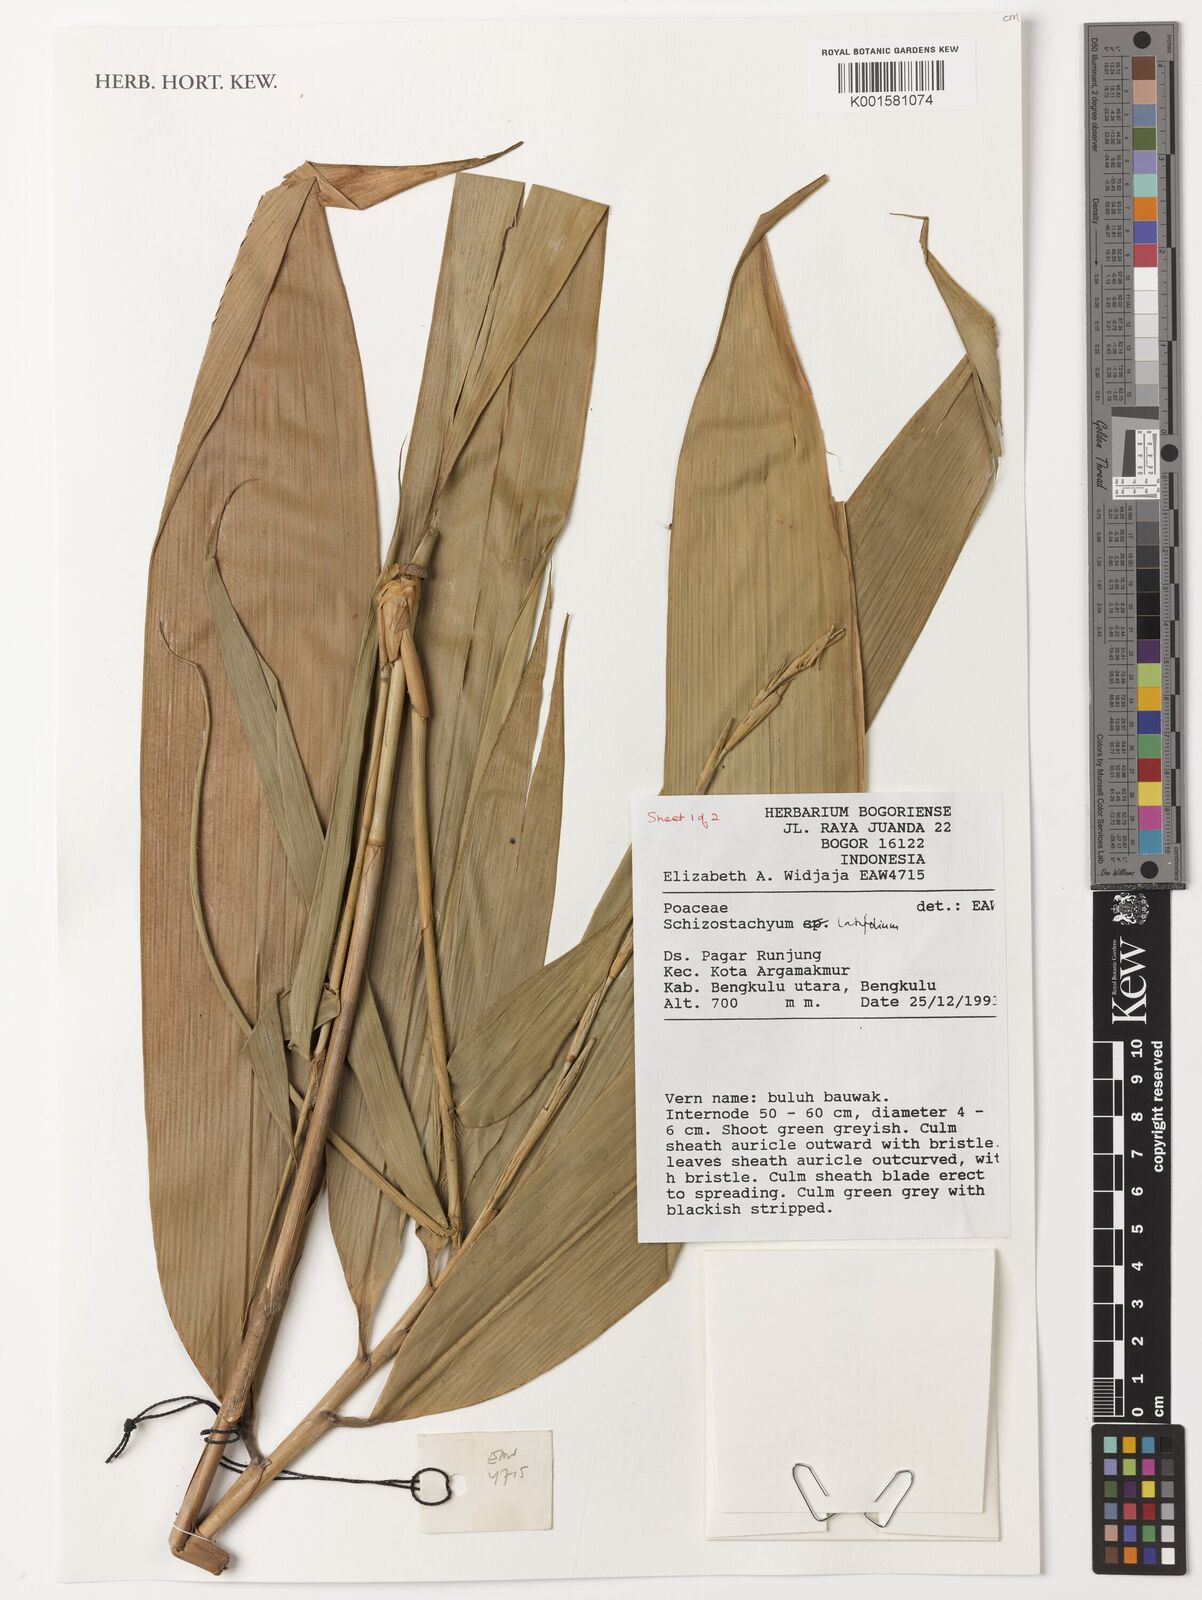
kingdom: Plantae
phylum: Tracheophyta
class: Liliopsida
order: Poales
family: Poaceae
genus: Schizostachyum
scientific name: Schizostachyum latifolium
